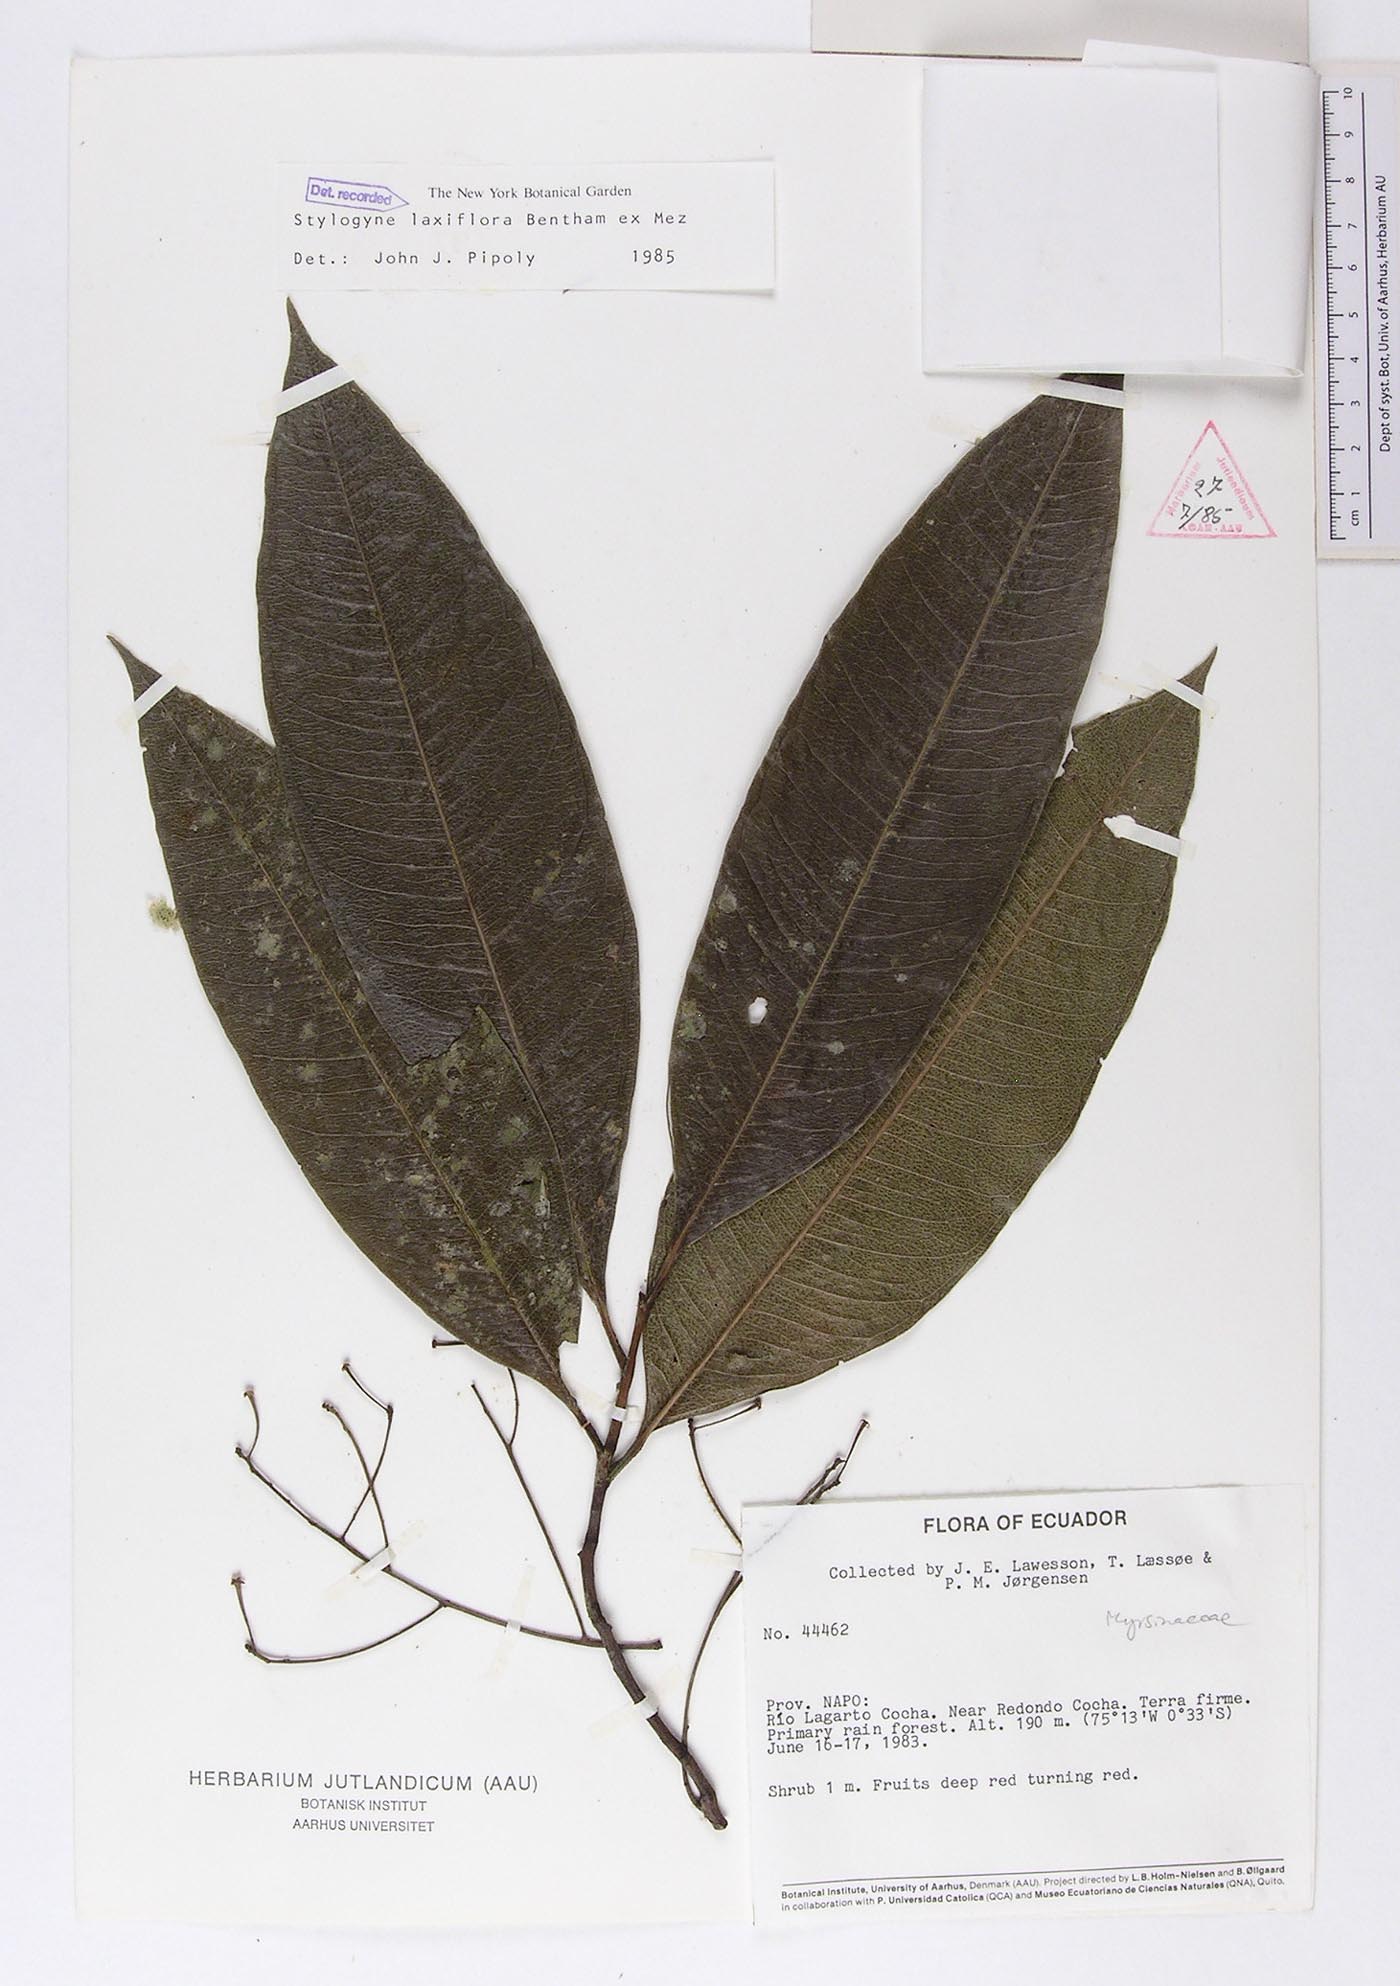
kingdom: Plantae
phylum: Tracheophyta
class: Magnoliopsida
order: Ericales
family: Primulaceae
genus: Stylogyne
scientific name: Stylogyne laxiflora
